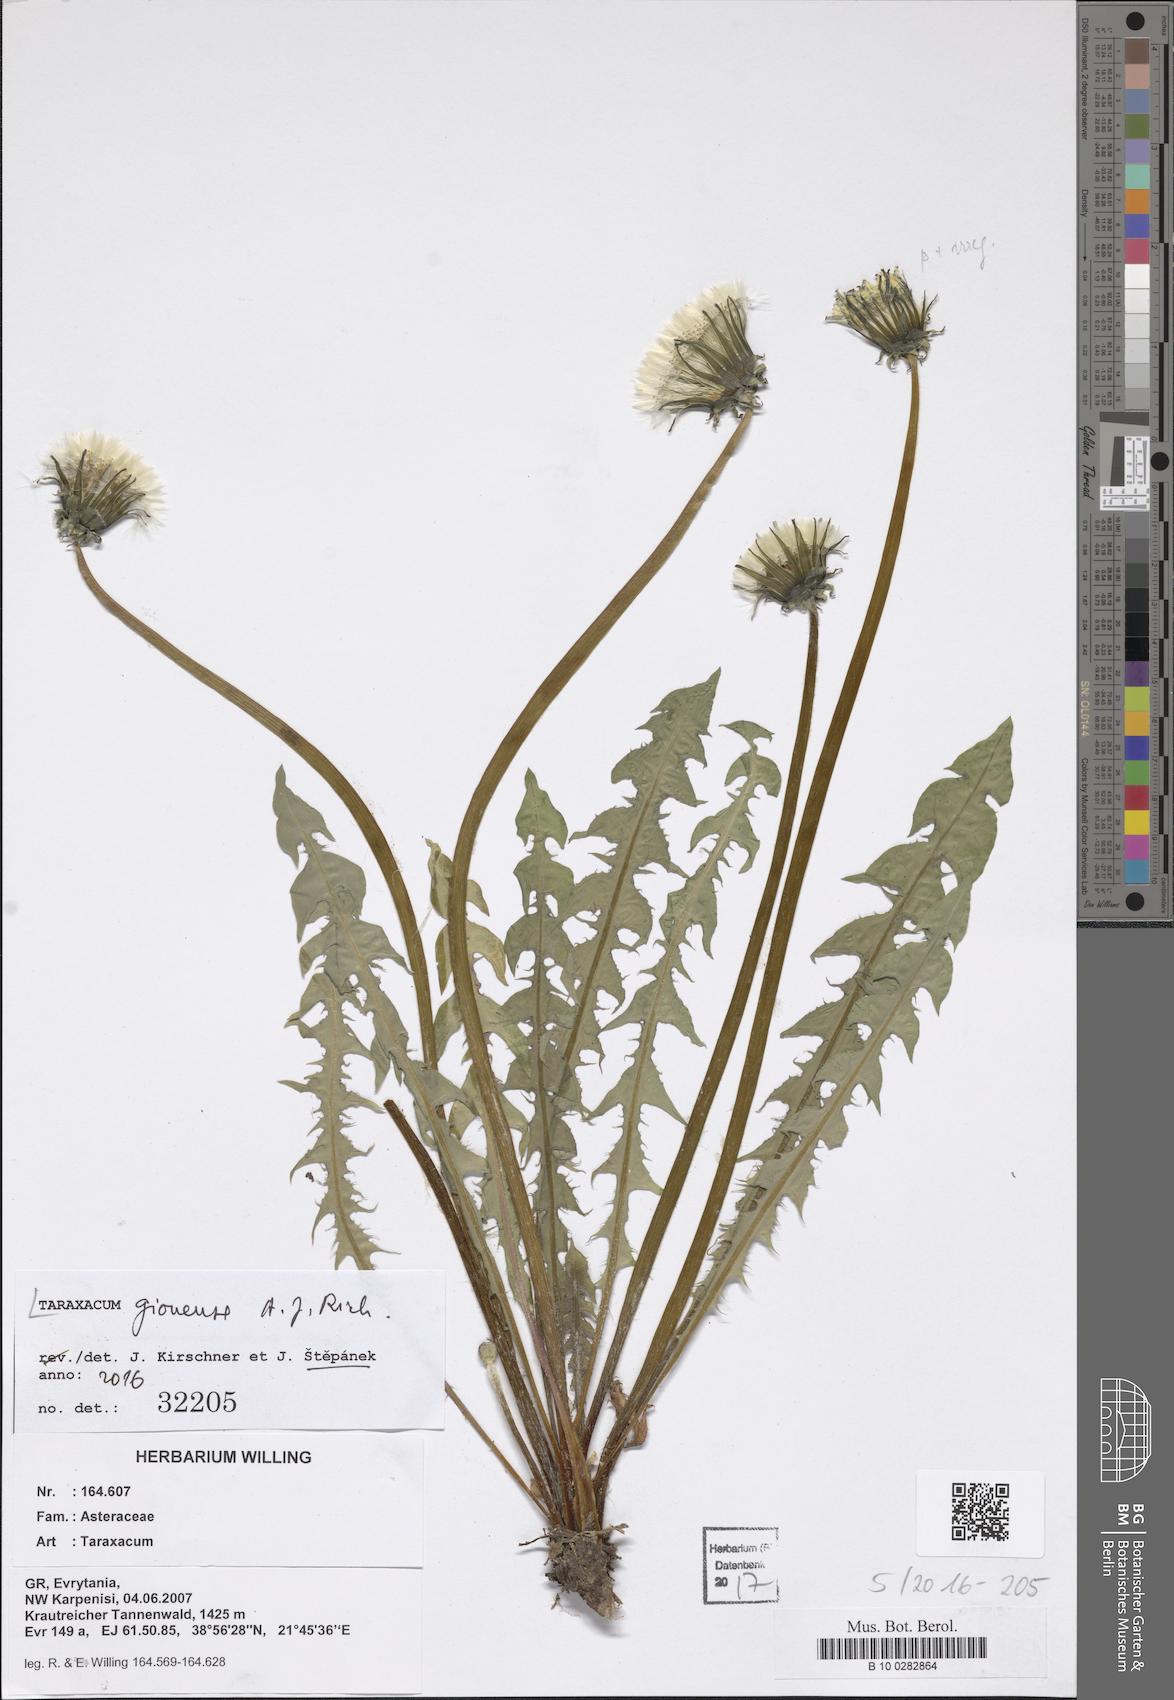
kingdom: Plantae
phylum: Tracheophyta
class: Magnoliopsida
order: Asterales
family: Asteraceae
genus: Taraxacum
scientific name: Taraxacum botanicorum
